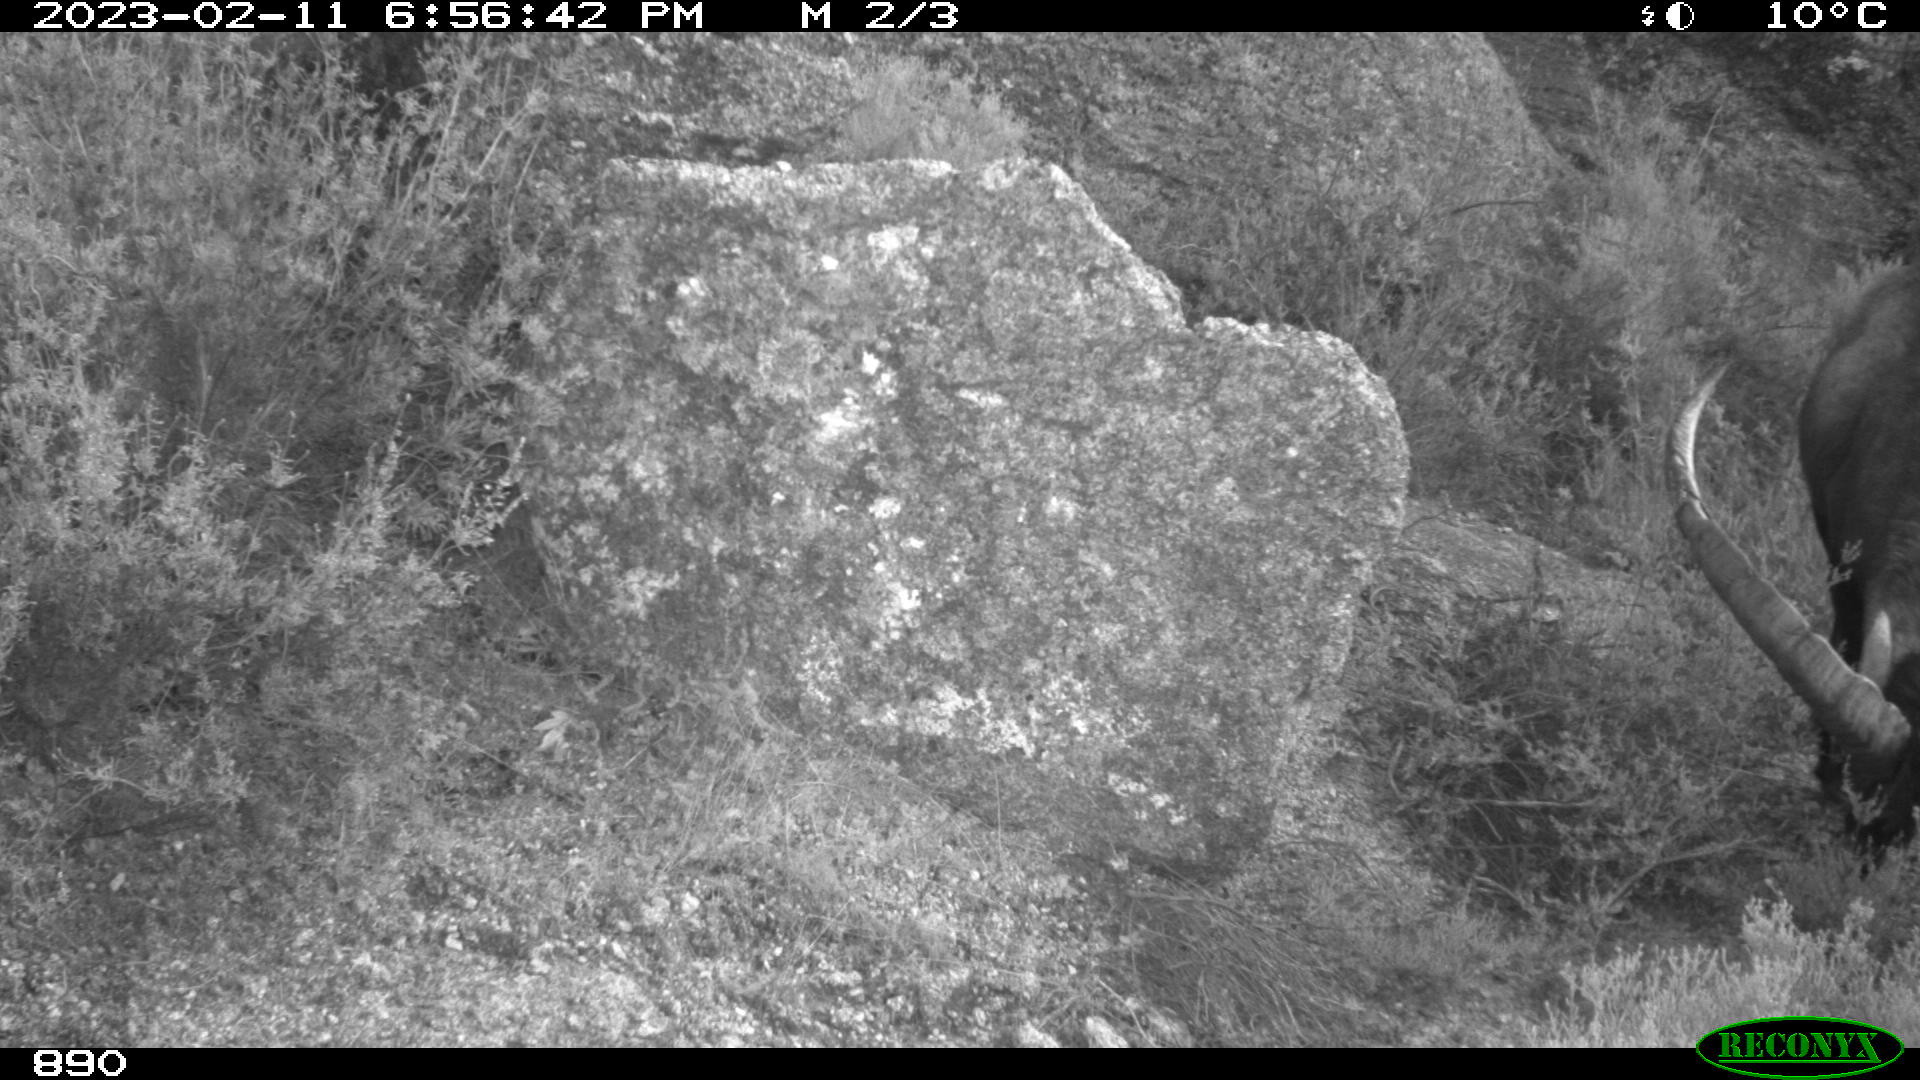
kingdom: Animalia
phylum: Chordata
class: Mammalia
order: Artiodactyla
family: Bovidae
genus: Capra
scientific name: Capra pyrenaica
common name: Spanish ibex
